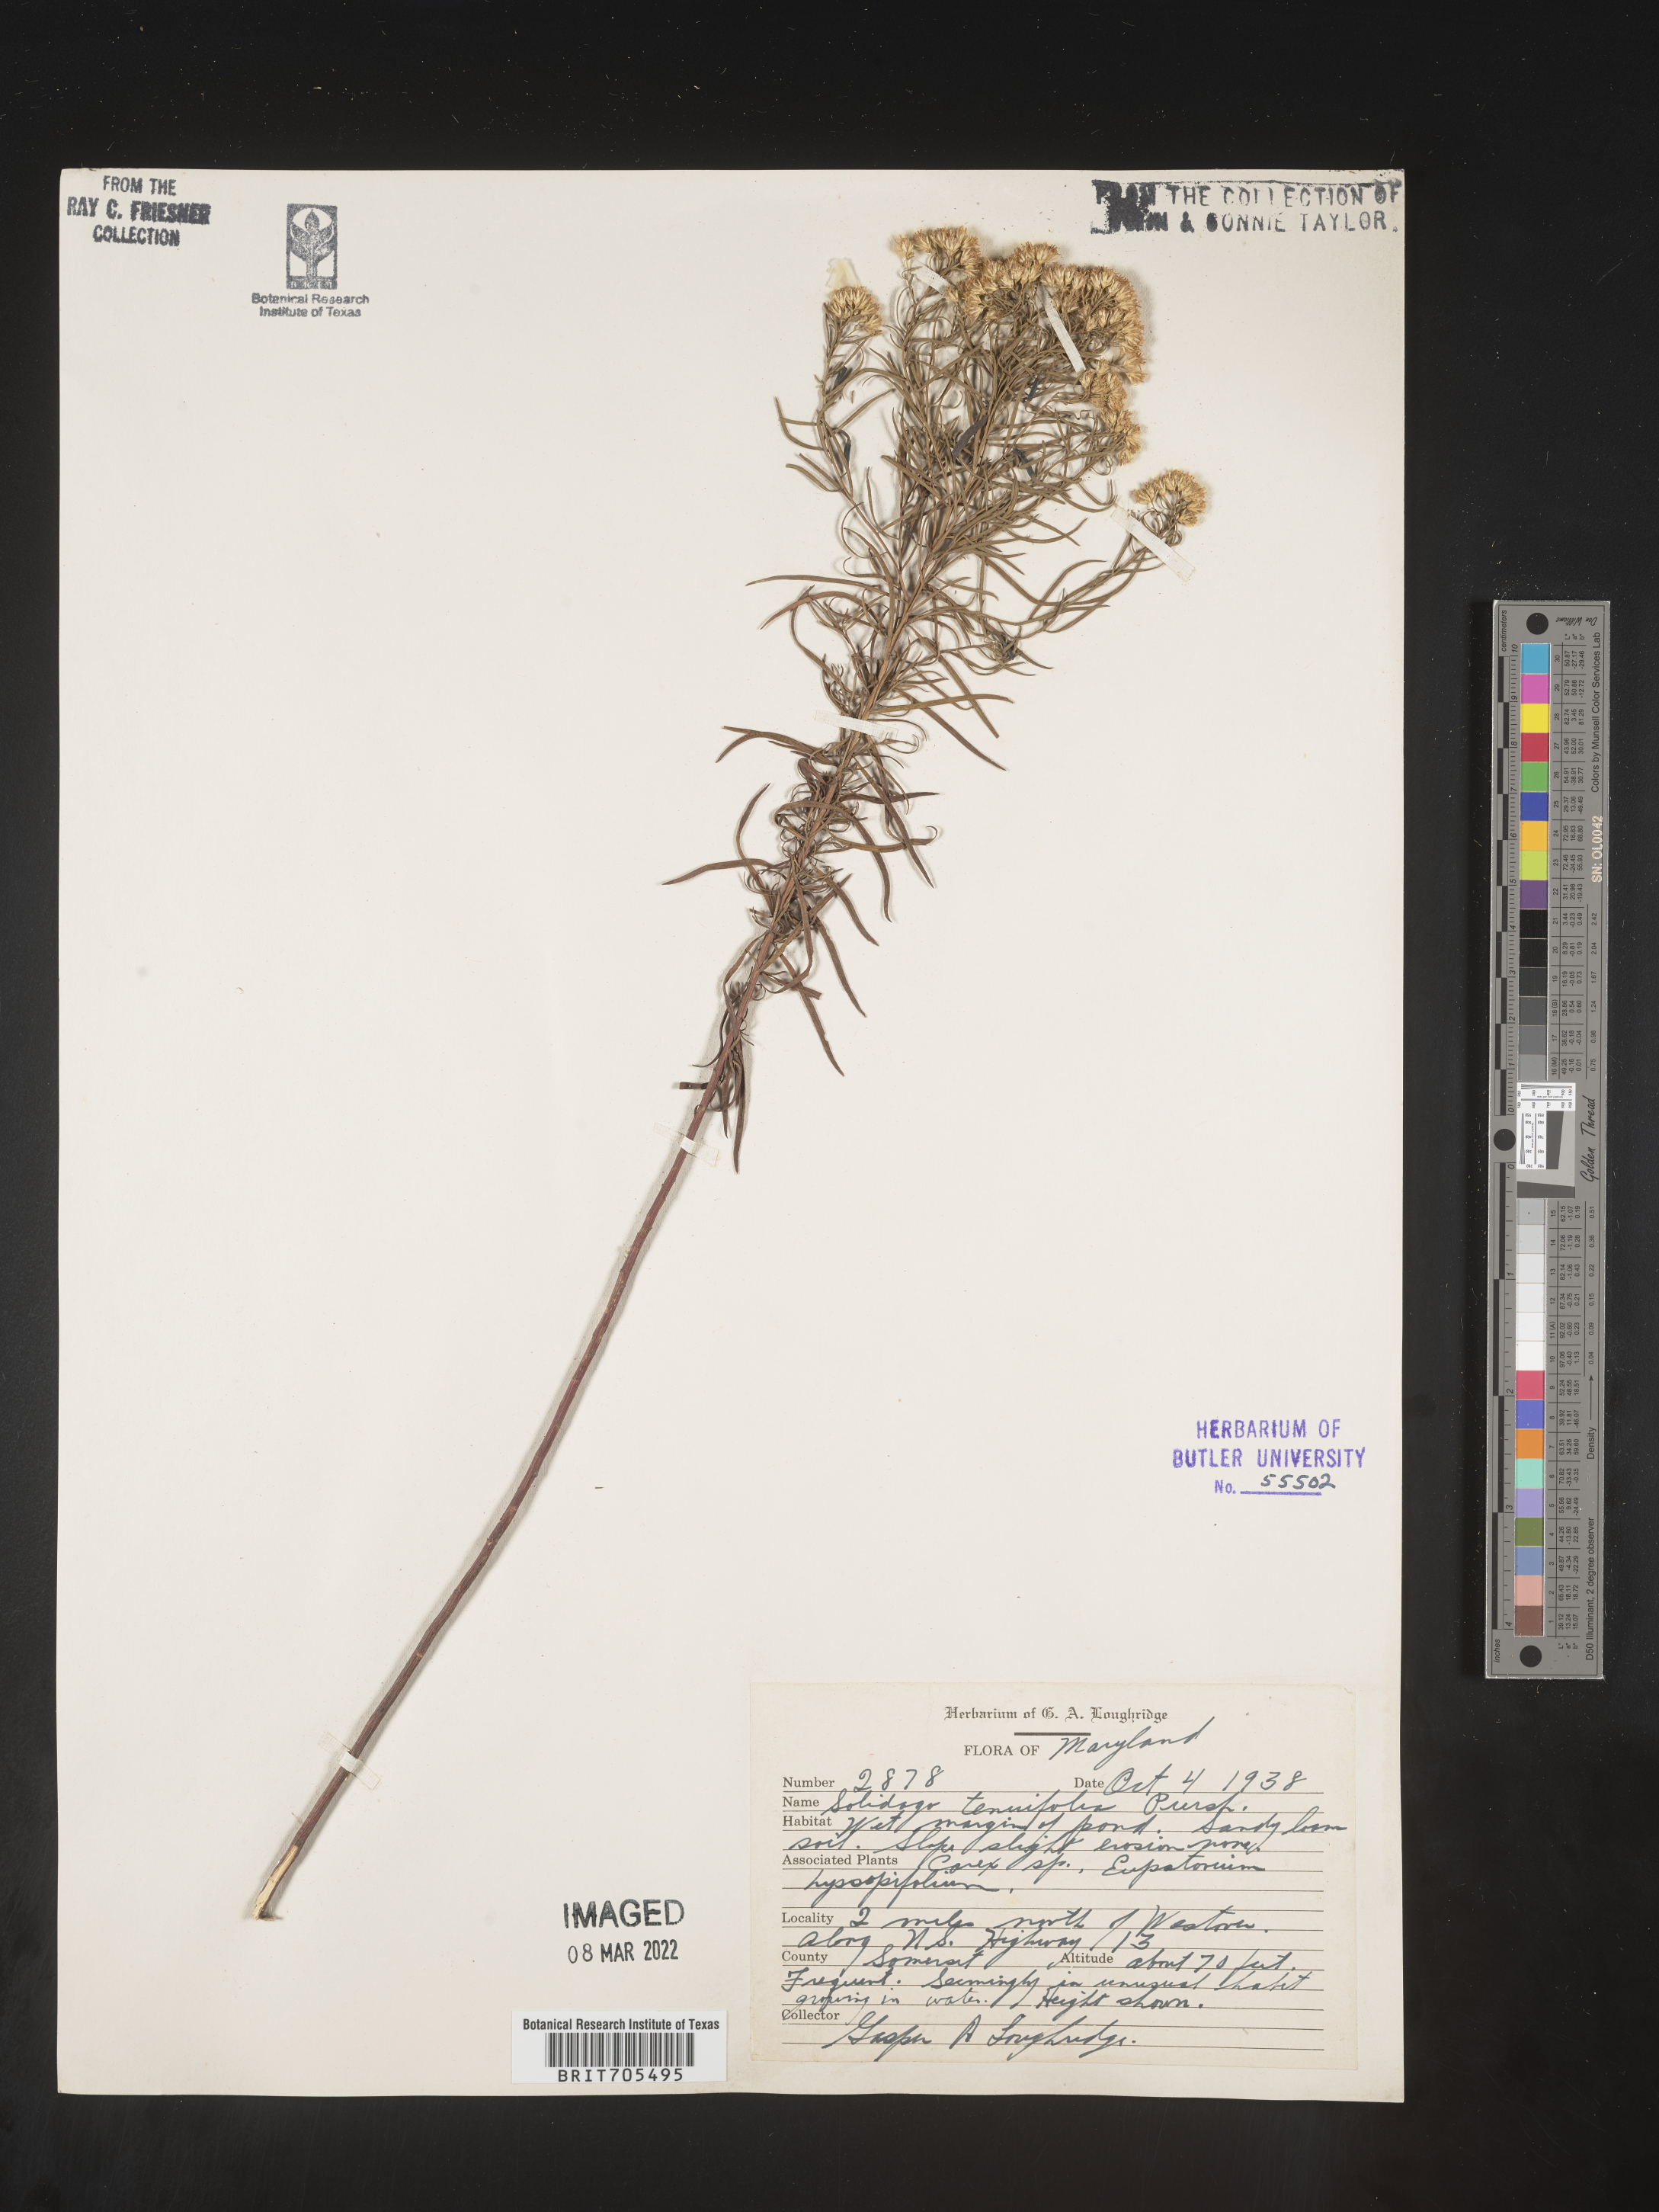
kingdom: Plantae
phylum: Tracheophyta
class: Magnoliopsida
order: Asterales
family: Asteraceae
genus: Euthamia
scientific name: Euthamia caroliniana
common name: Coastal plain goldentop
